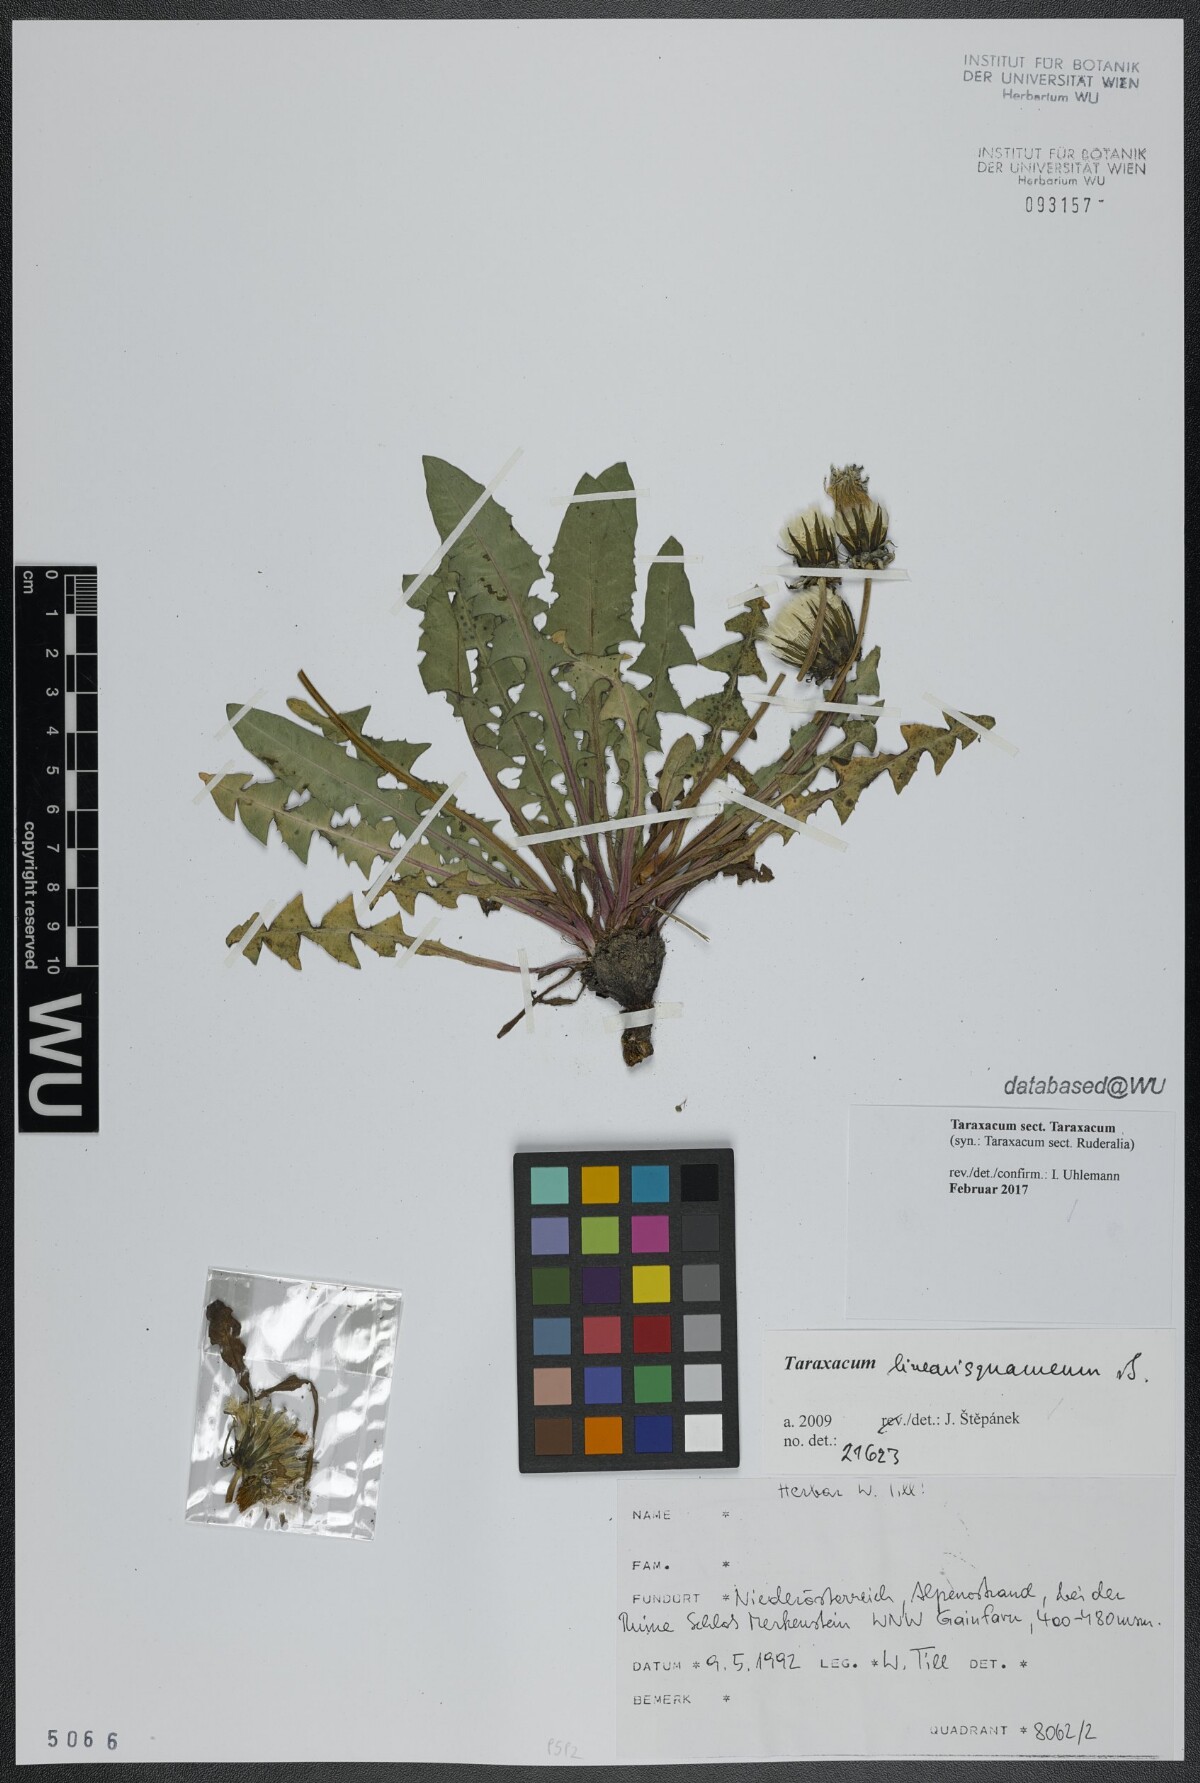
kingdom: Plantae
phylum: Tracheophyta
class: Magnoliopsida
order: Asterales
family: Asteraceae
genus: Taraxacum
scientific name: Taraxacum
